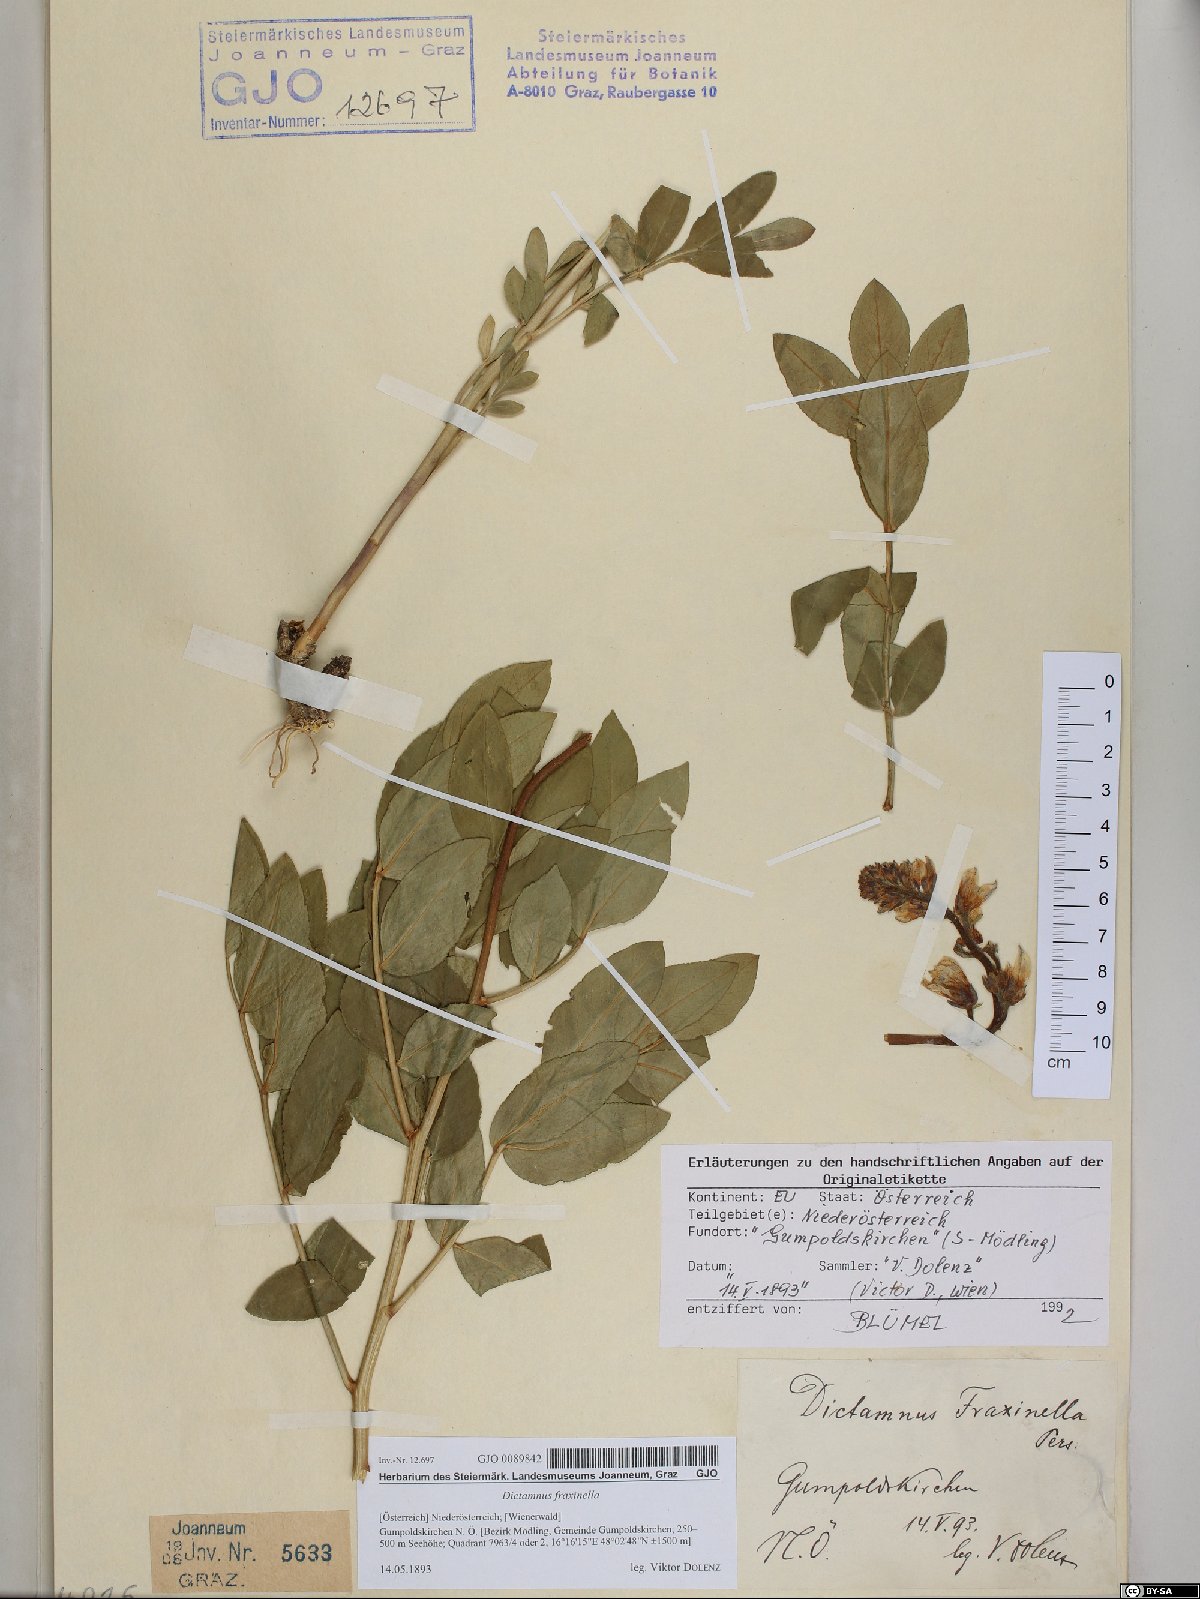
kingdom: Plantae
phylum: Tracheophyta
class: Magnoliopsida
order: Sapindales
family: Rutaceae
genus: Dictamnus
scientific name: Dictamnus albus
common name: Gasplant
